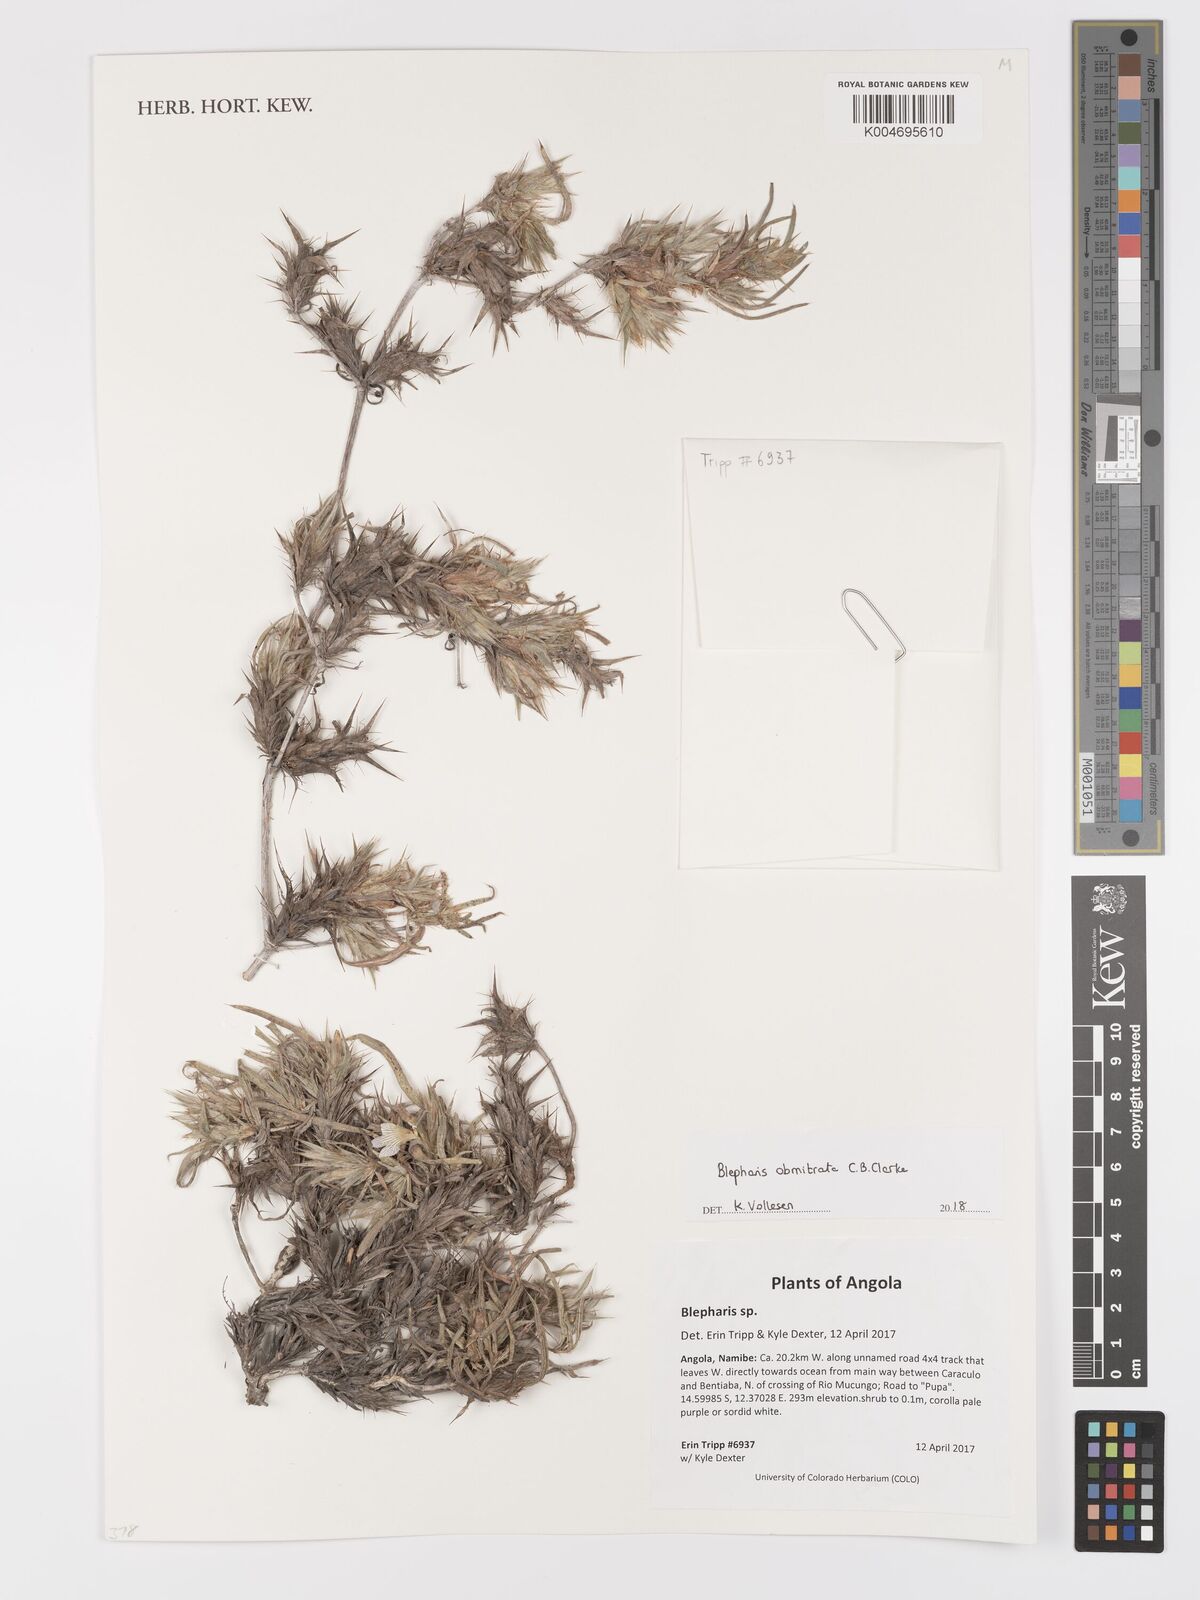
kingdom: Plantae
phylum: Tracheophyta
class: Magnoliopsida
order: Lamiales
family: Acanthaceae
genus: Blepharis
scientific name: Blepharis obmitrata
